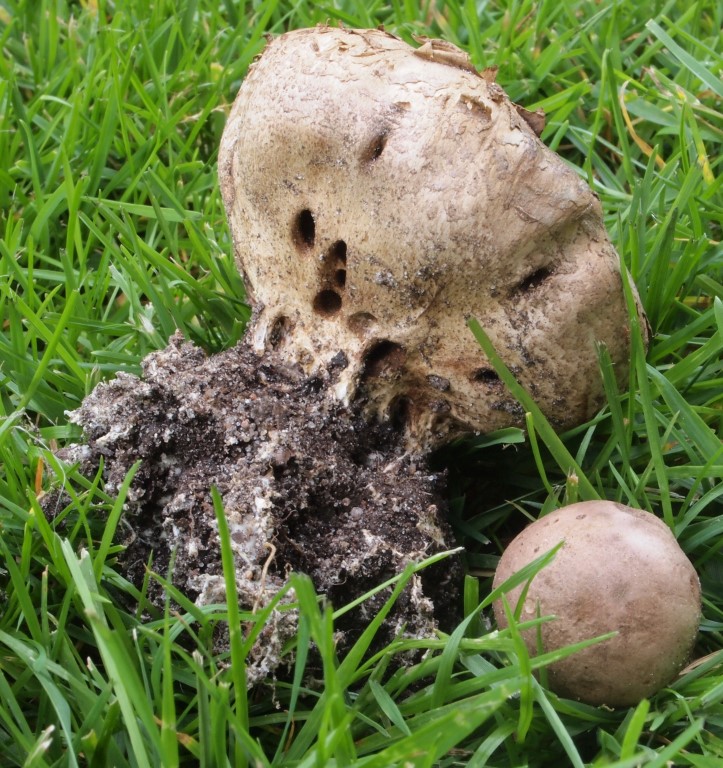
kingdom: Fungi
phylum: Basidiomycota
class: Agaricomycetes
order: Boletales
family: Sclerodermataceae
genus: Scleroderma
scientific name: Scleroderma verrucosum
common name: stilket bruskbold
